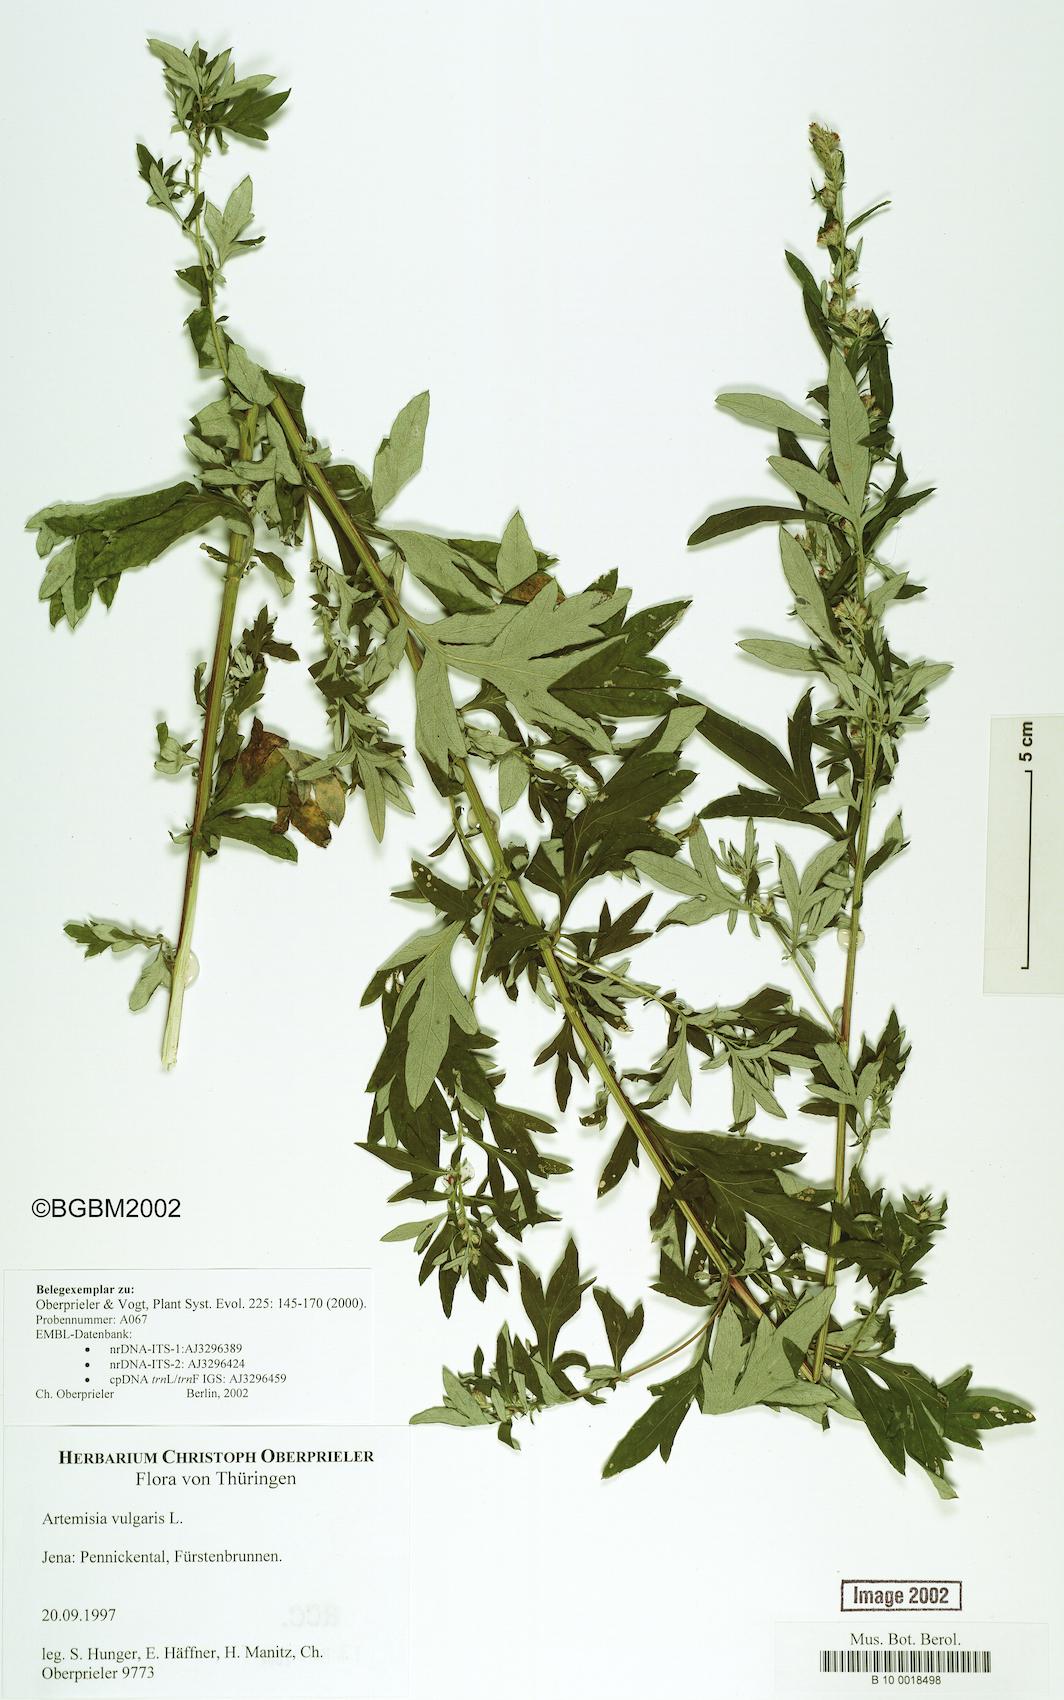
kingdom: Plantae
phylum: Tracheophyta
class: Magnoliopsida
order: Asterales
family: Asteraceae
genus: Artemisia
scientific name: Artemisia vulgaris
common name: Mugwort
